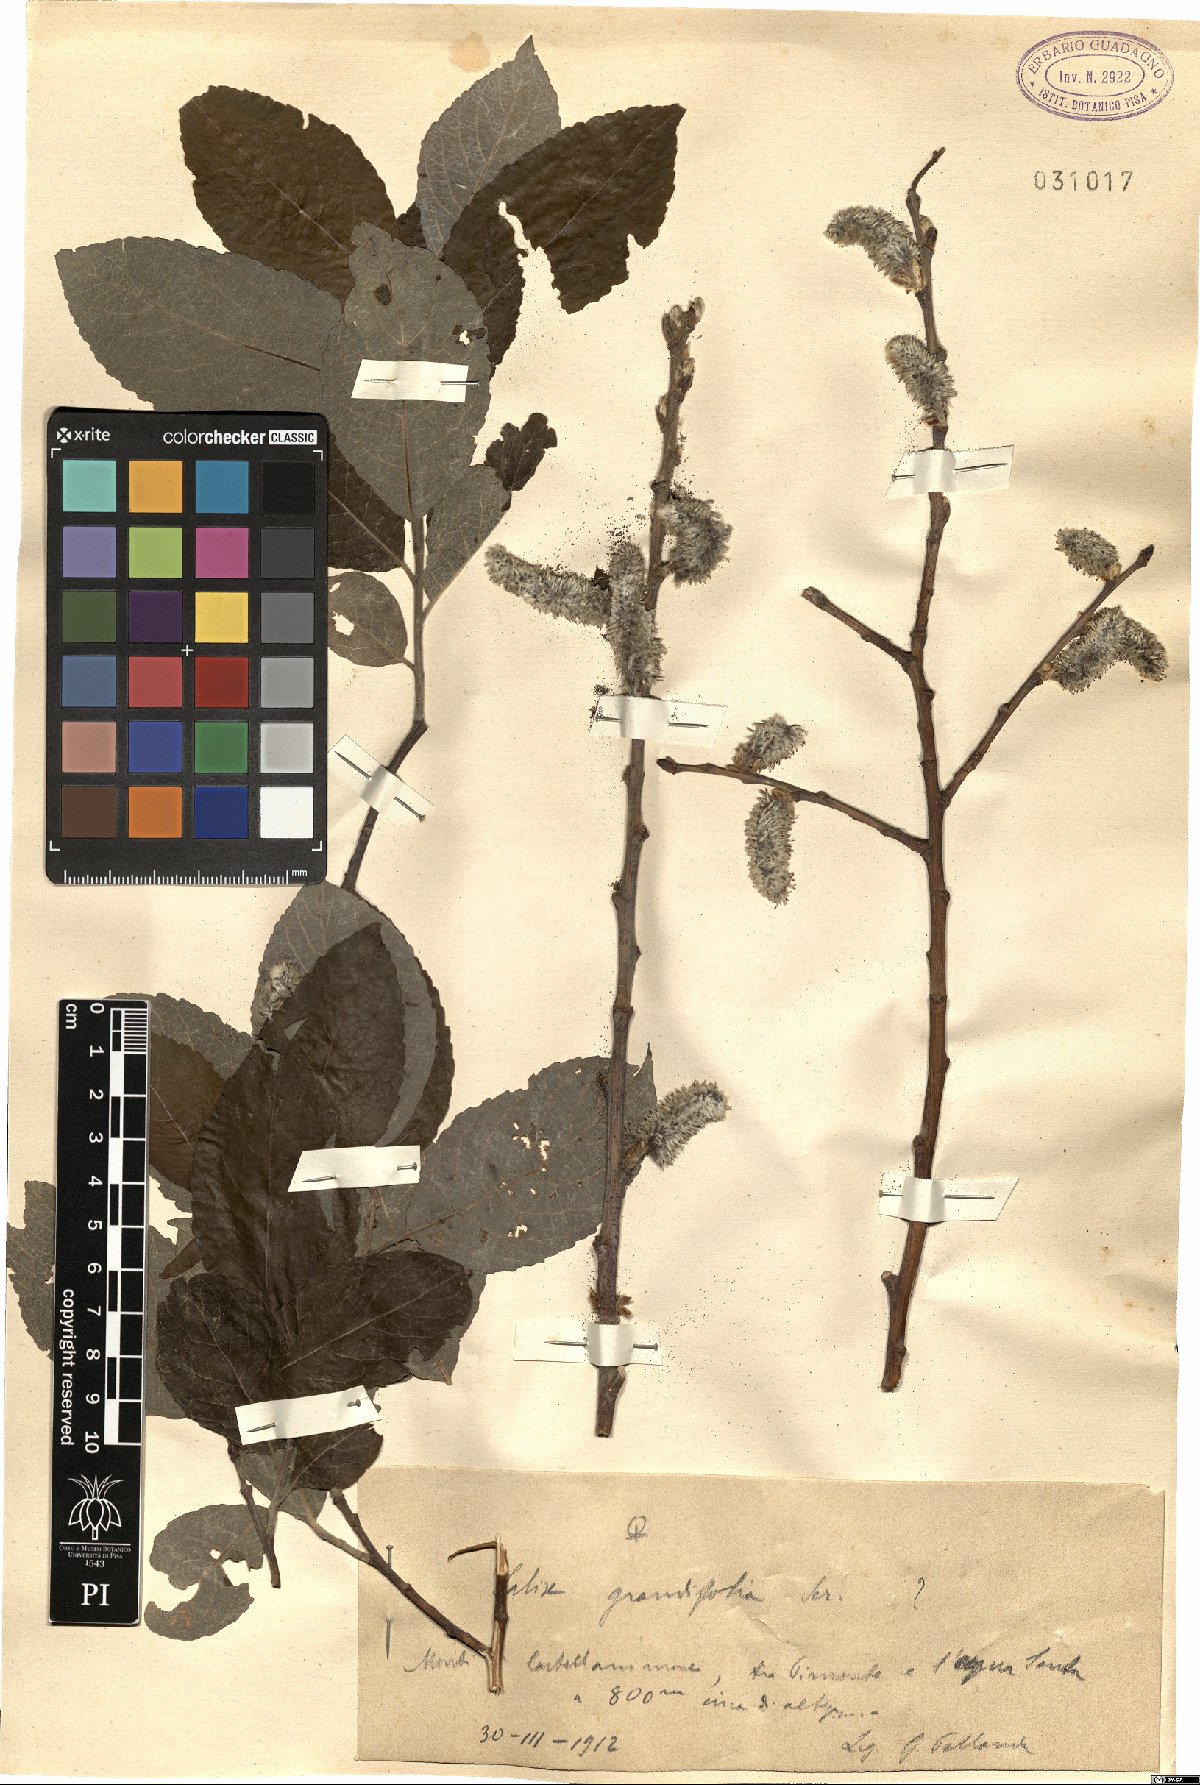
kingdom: Plantae
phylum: Tracheophyta
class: Magnoliopsida
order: Malpighiales
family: Salicaceae
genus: Salix
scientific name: Salix appendiculata
